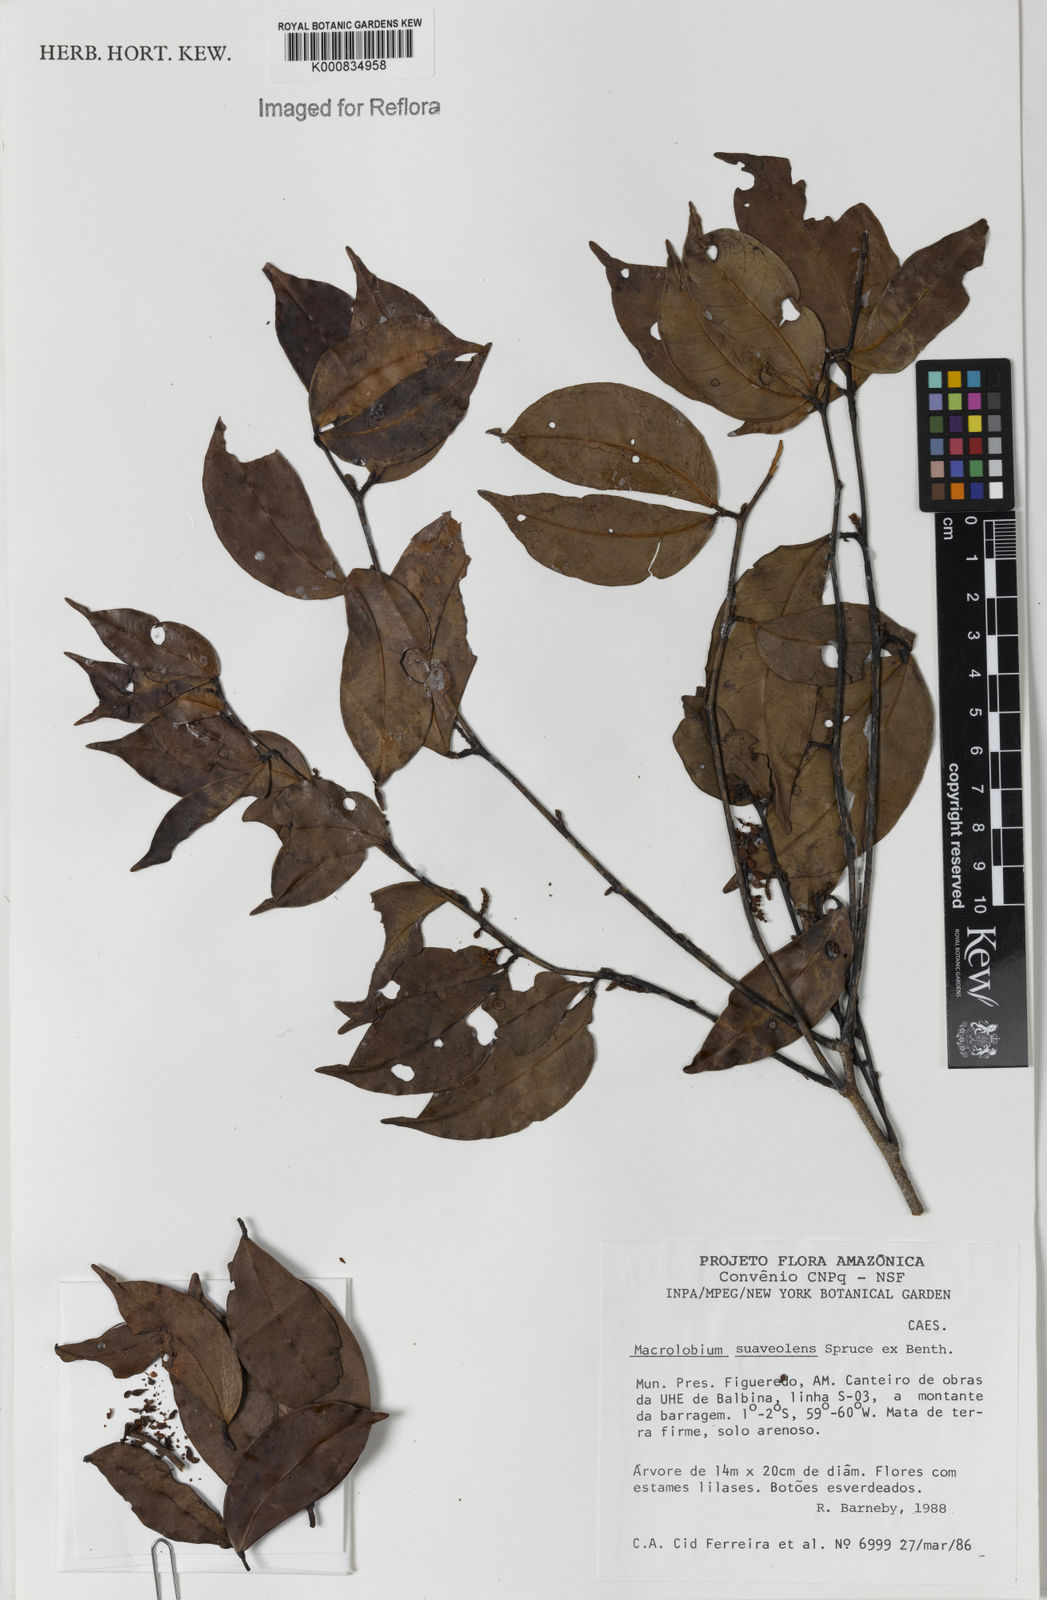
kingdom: Plantae
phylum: Tracheophyta
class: Magnoliopsida
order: Fabales
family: Fabaceae
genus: Macrolobium
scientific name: Macrolobium suaveolens
